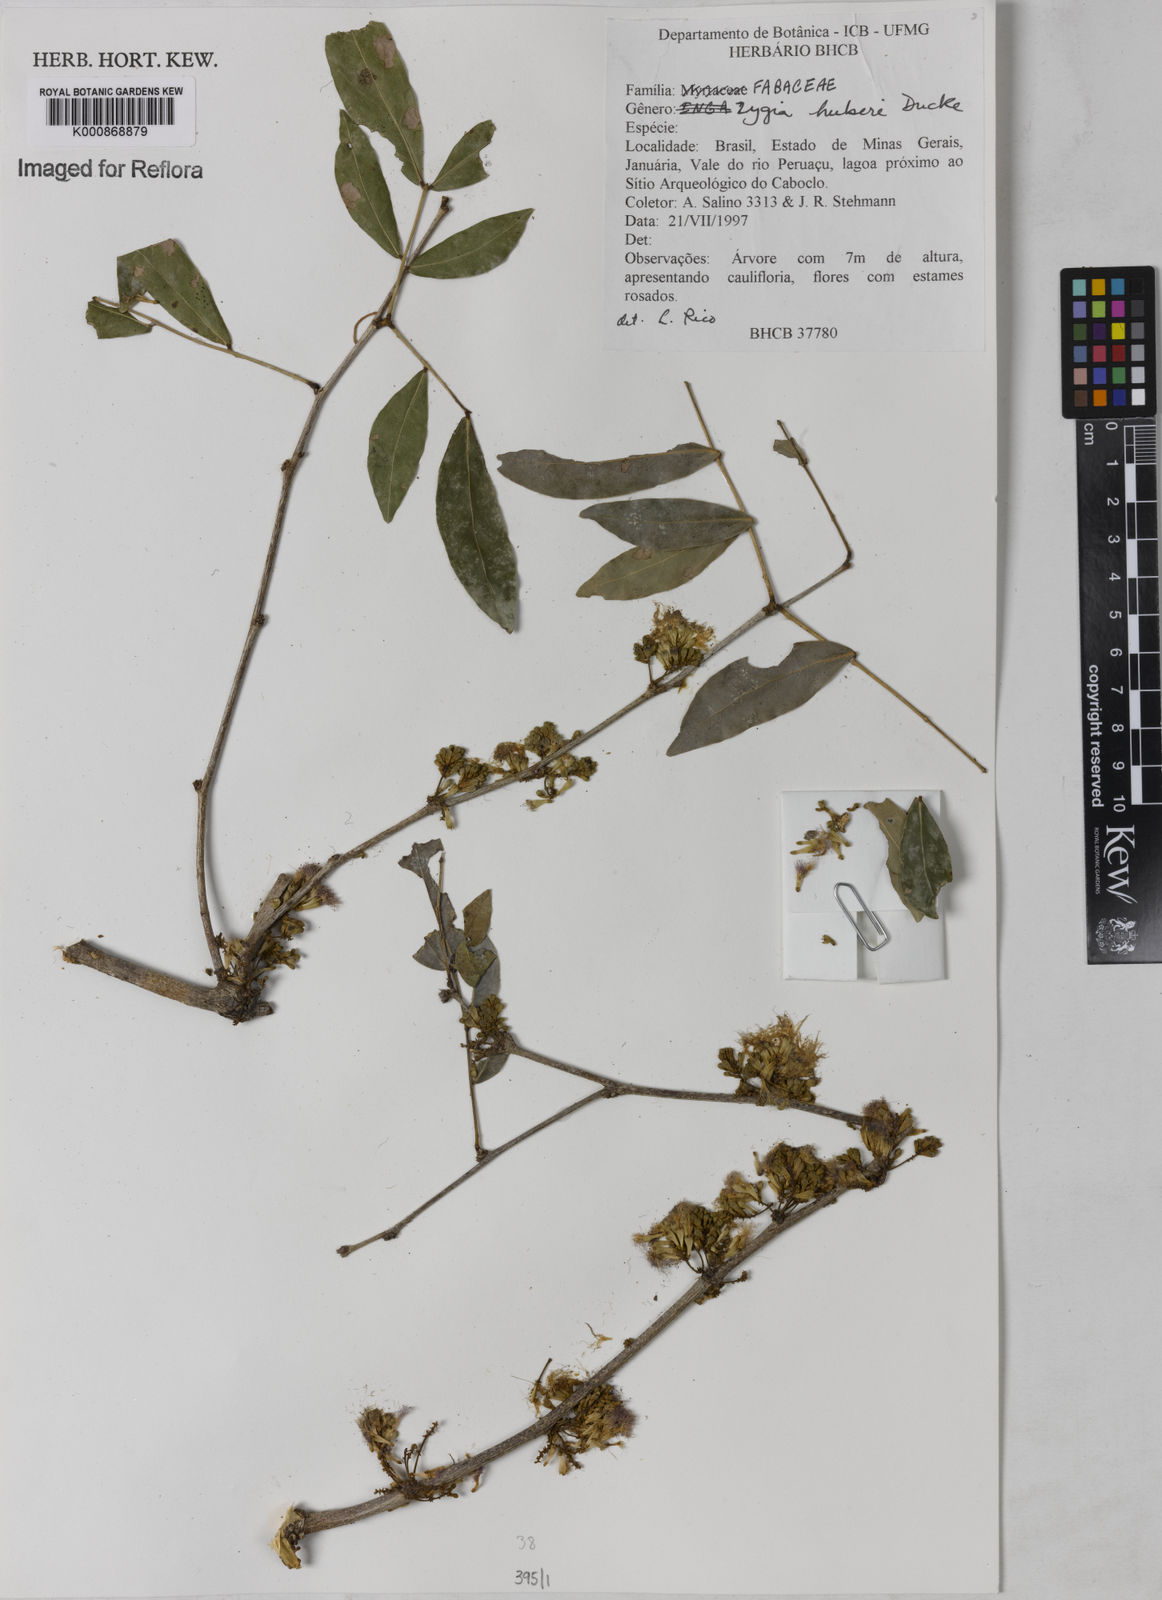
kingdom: Plantae
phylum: Tracheophyta
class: Magnoliopsida
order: Fabales
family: Fabaceae
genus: Zygia
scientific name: Zygia latifolia
